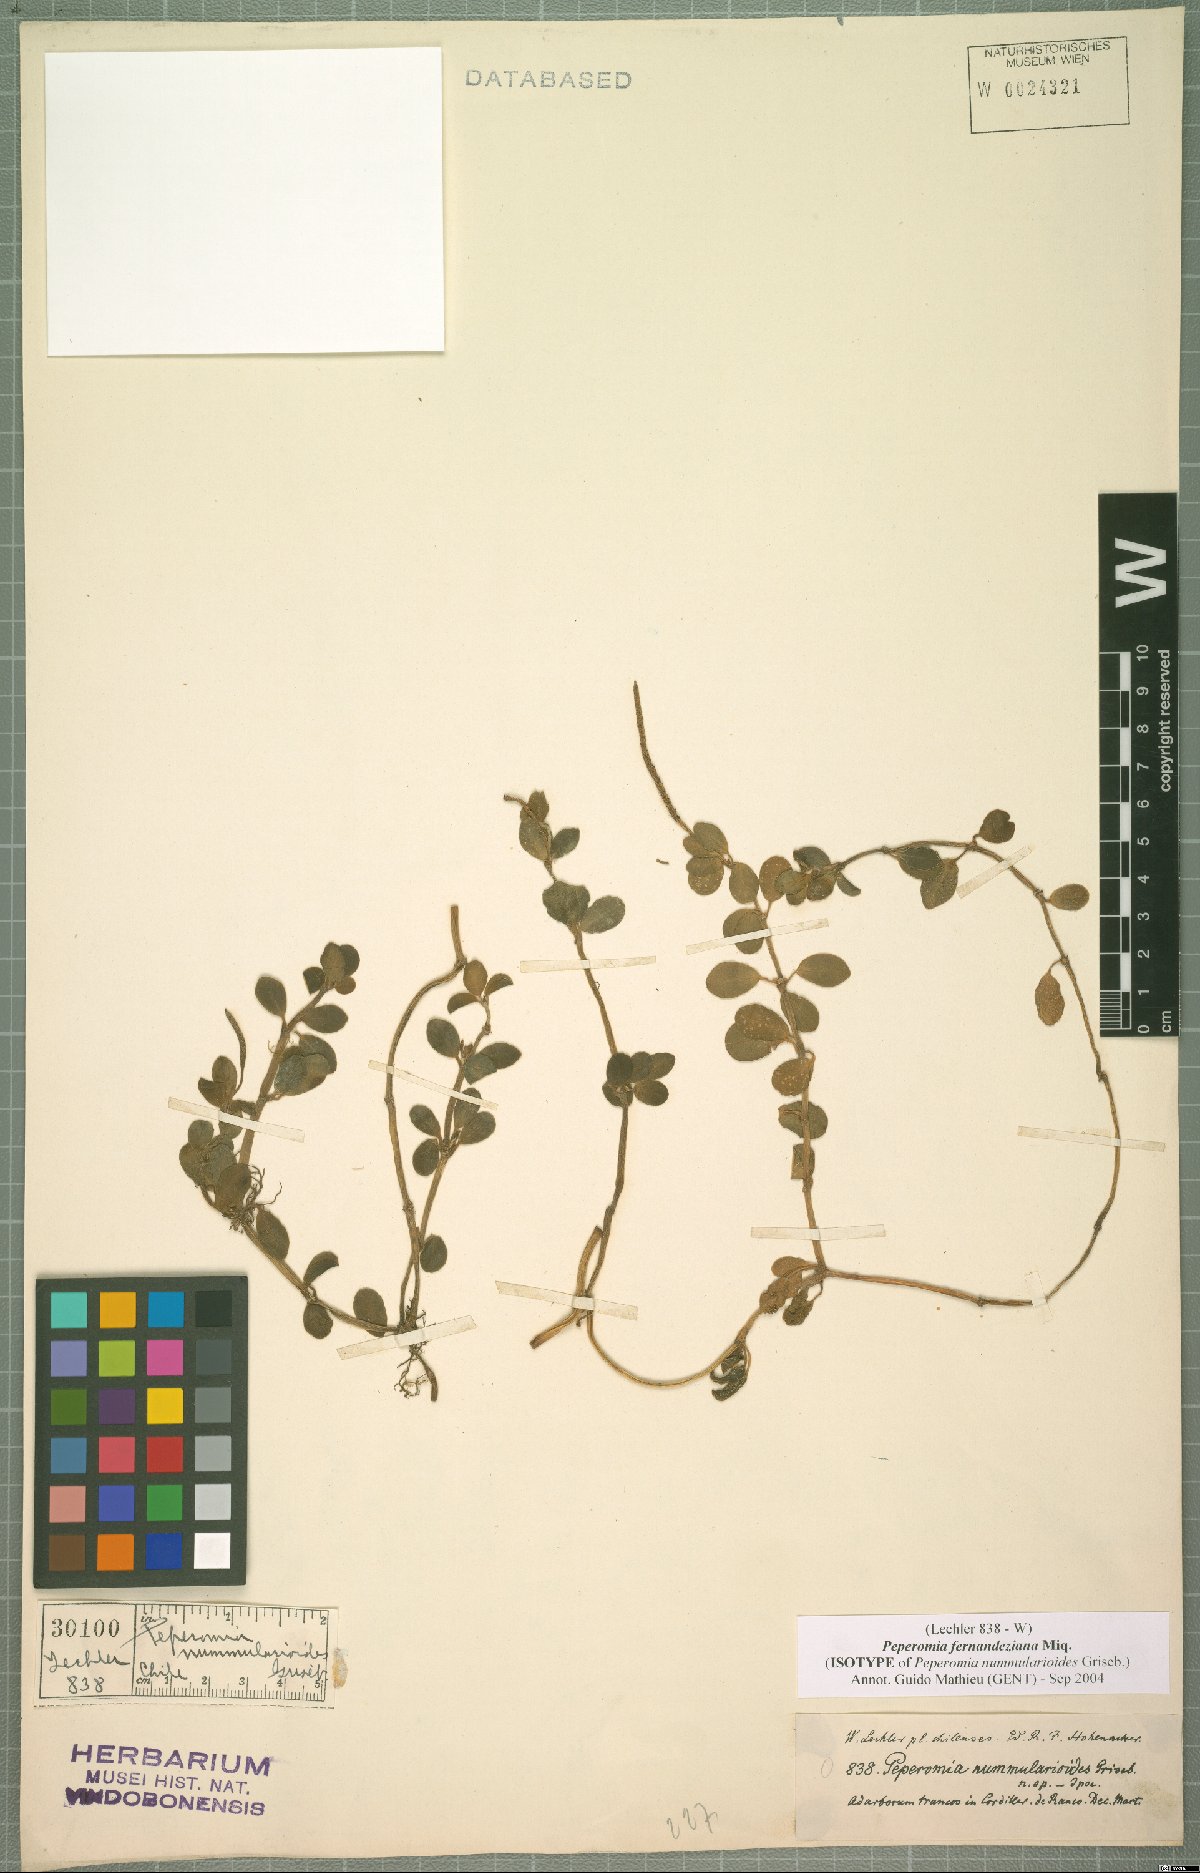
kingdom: Plantae
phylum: Tracheophyta
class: Magnoliopsida
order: Piperales
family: Piperaceae
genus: Peperomia
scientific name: Peperomia fernandeziana
